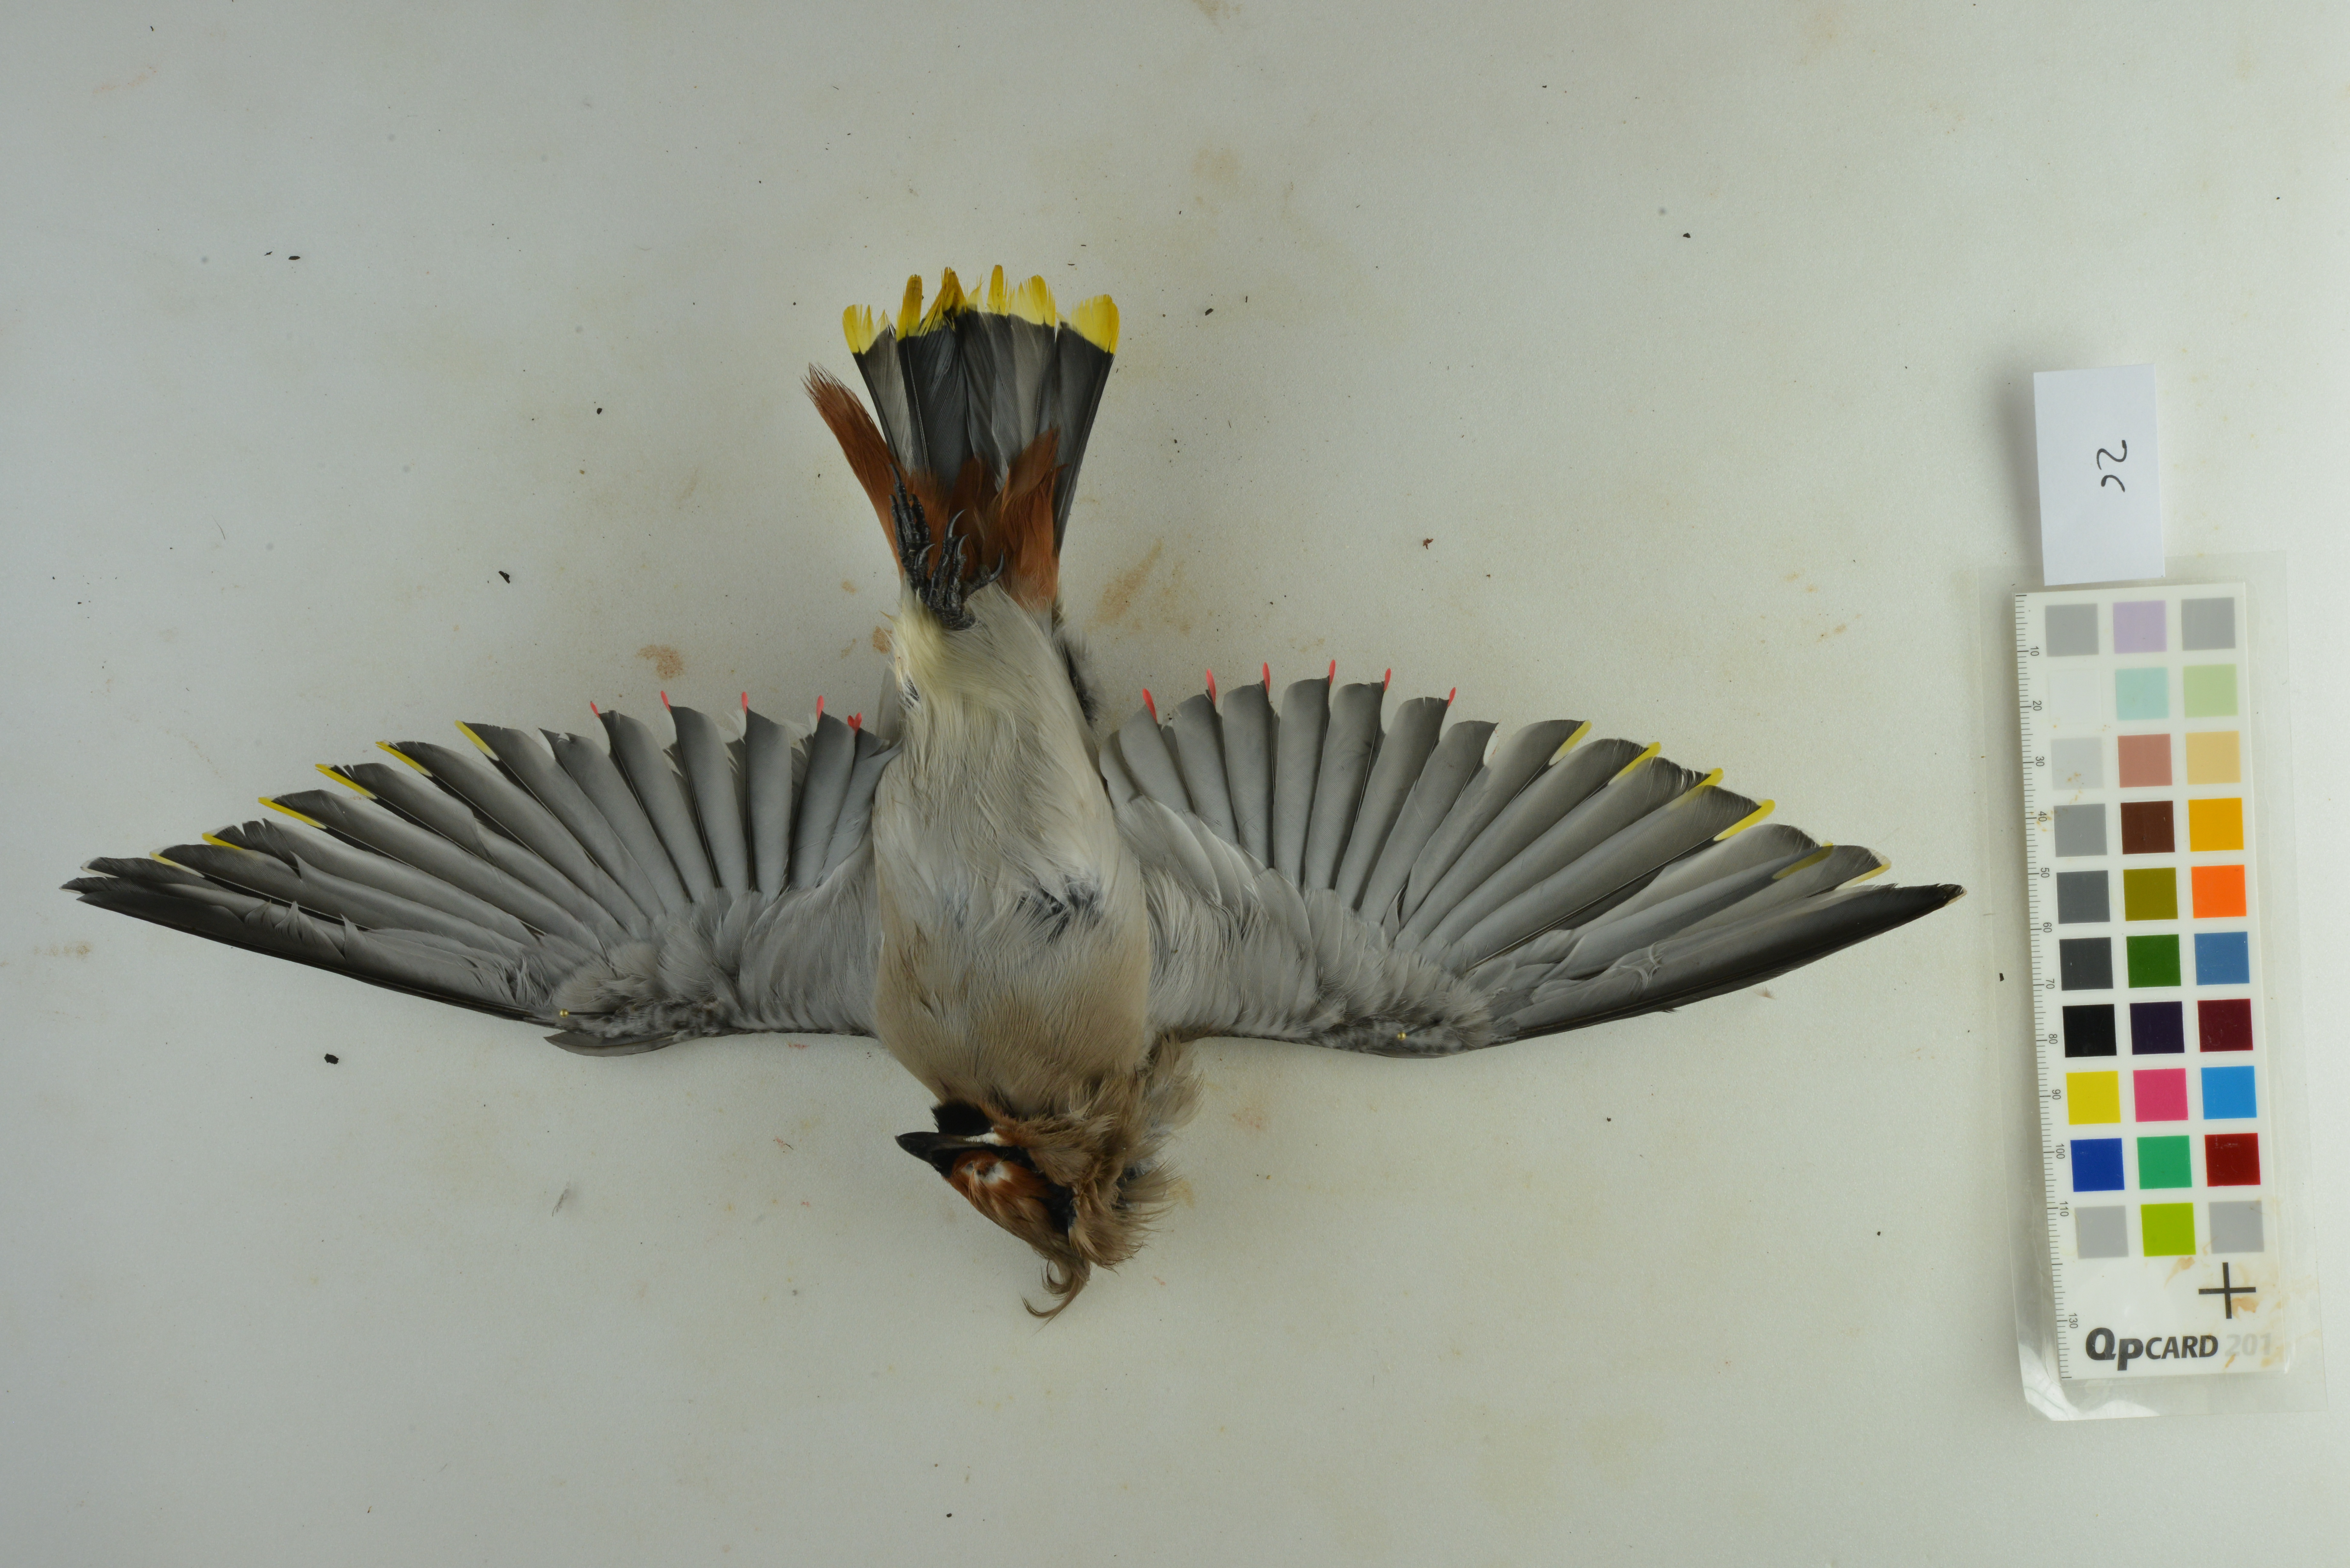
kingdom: Animalia
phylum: Chordata
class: Aves
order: Passeriformes
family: Bombycillidae
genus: Bombycilla
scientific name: Bombycilla garrulus
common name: Bohemian waxwing
